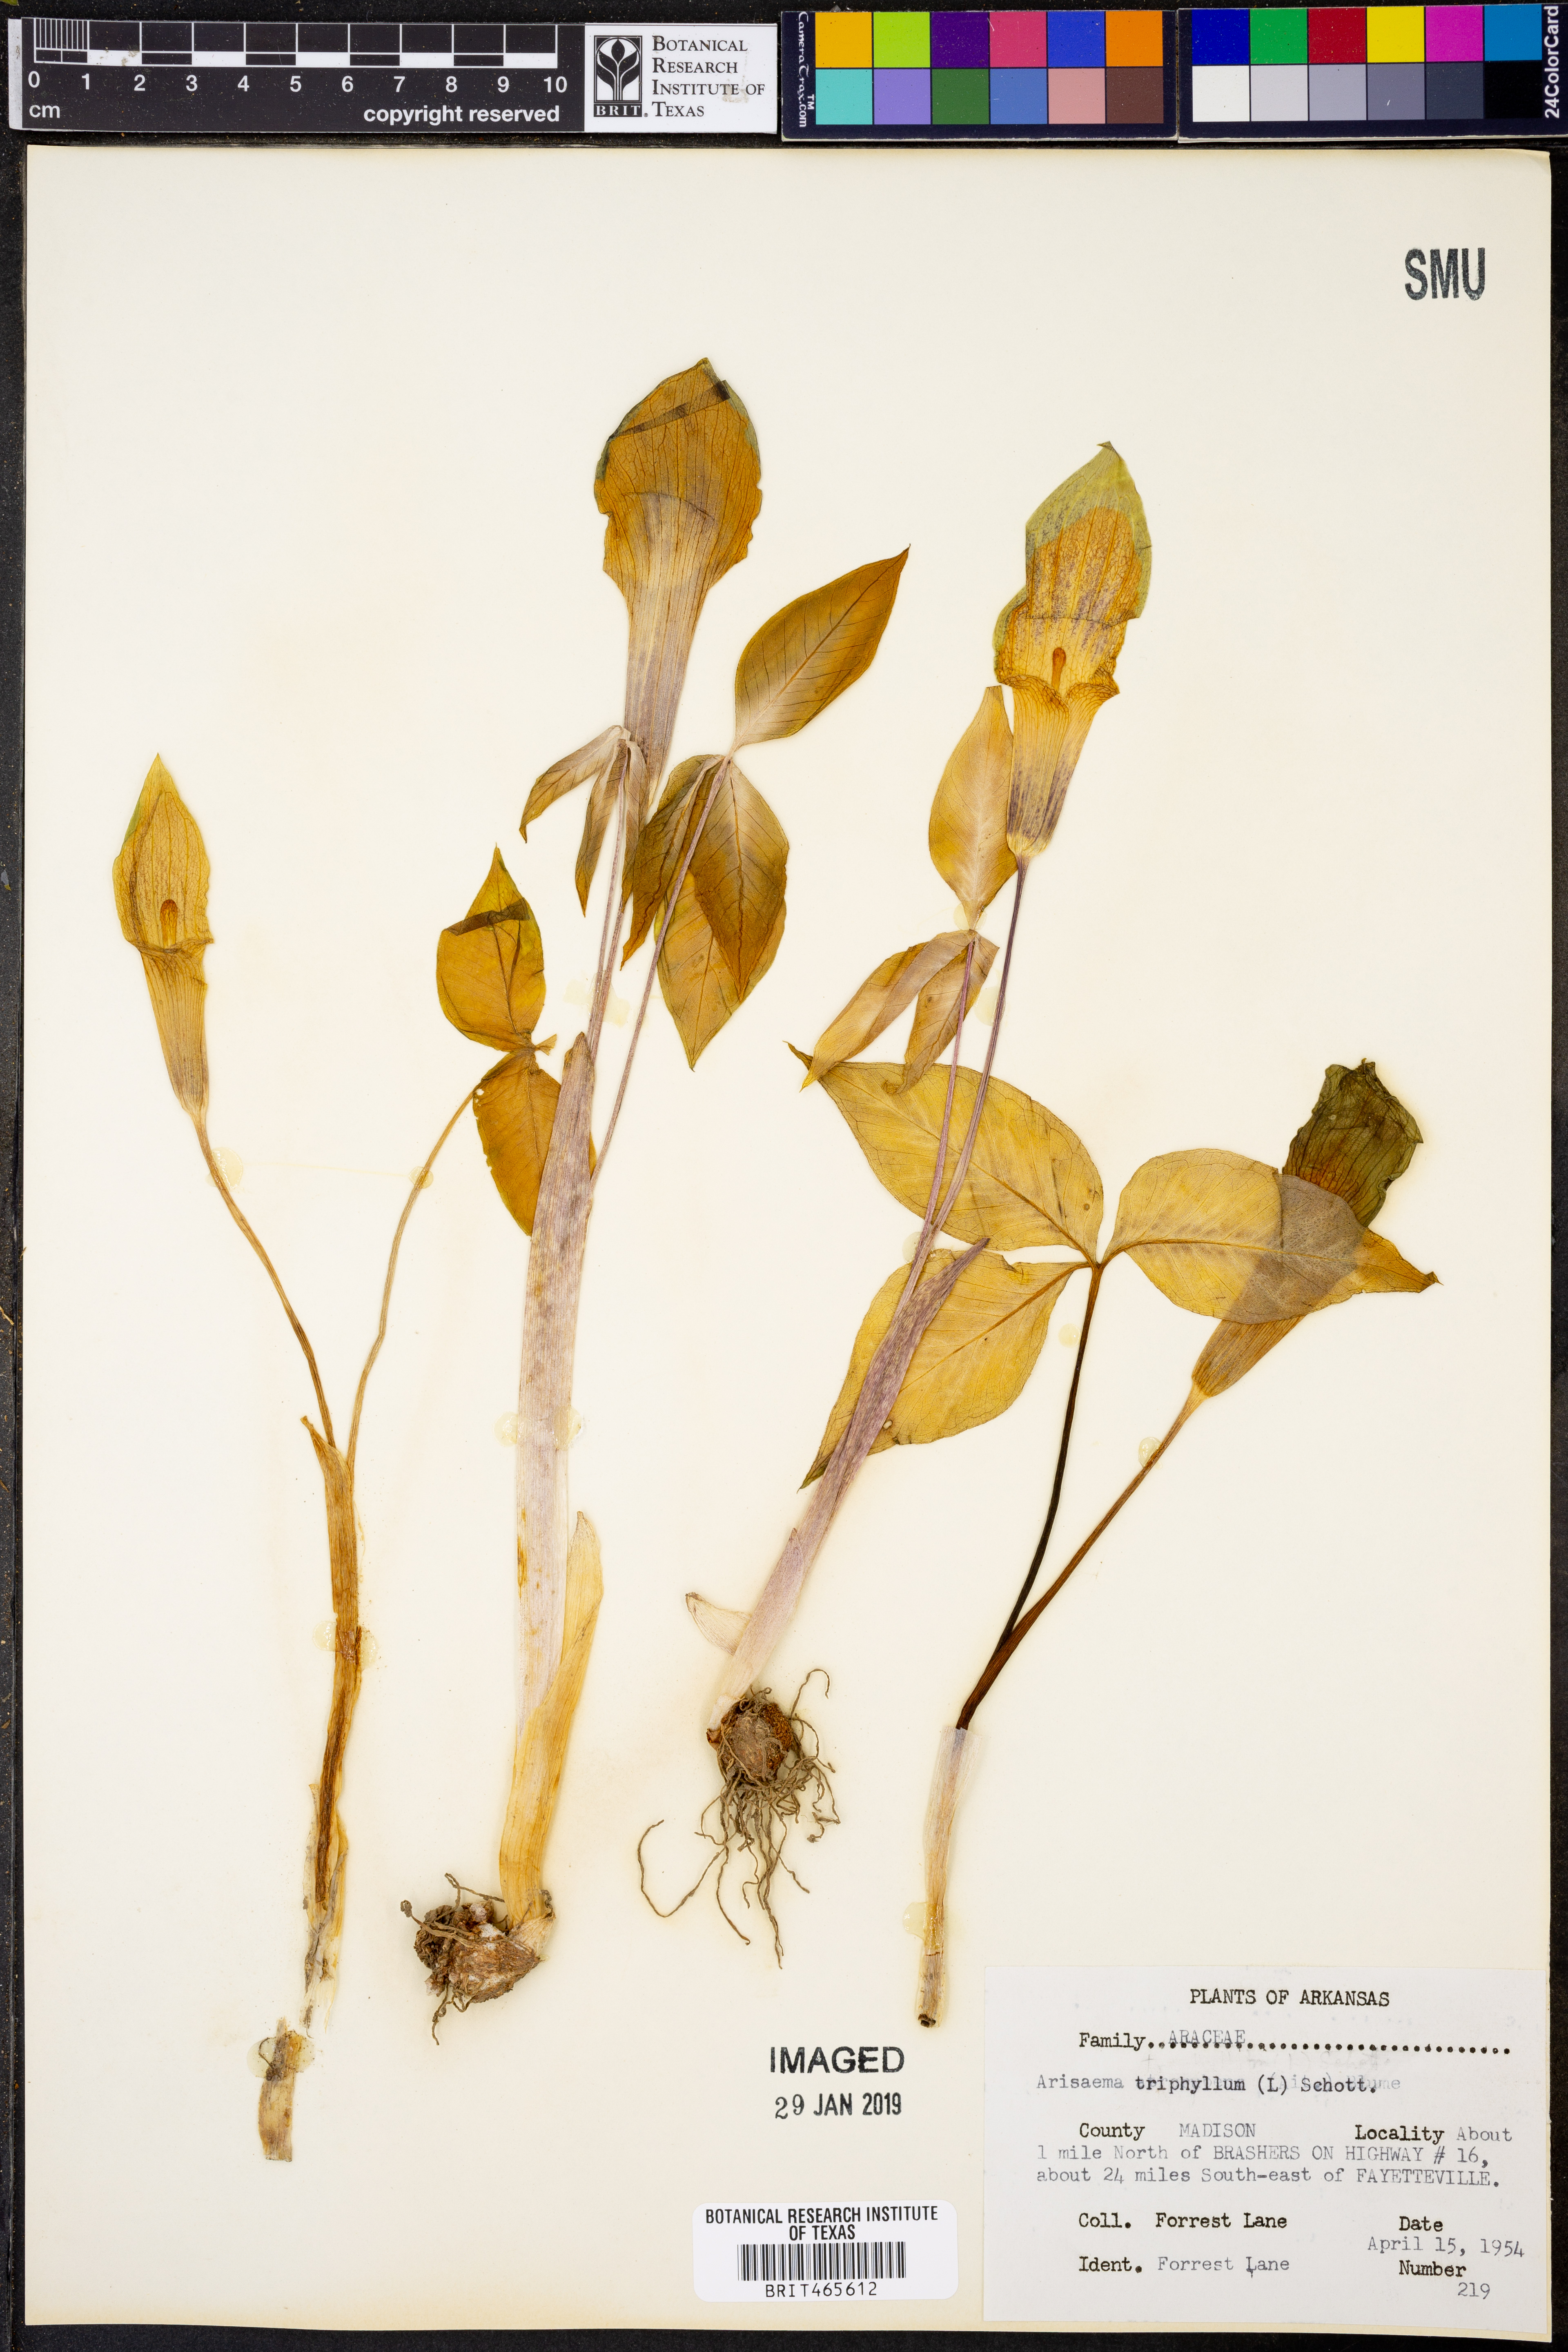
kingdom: Plantae
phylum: Tracheophyta
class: Liliopsida
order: Alismatales
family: Araceae
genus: Arisaema
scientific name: Arisaema triphyllum
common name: Jack-in-the-pulpit
